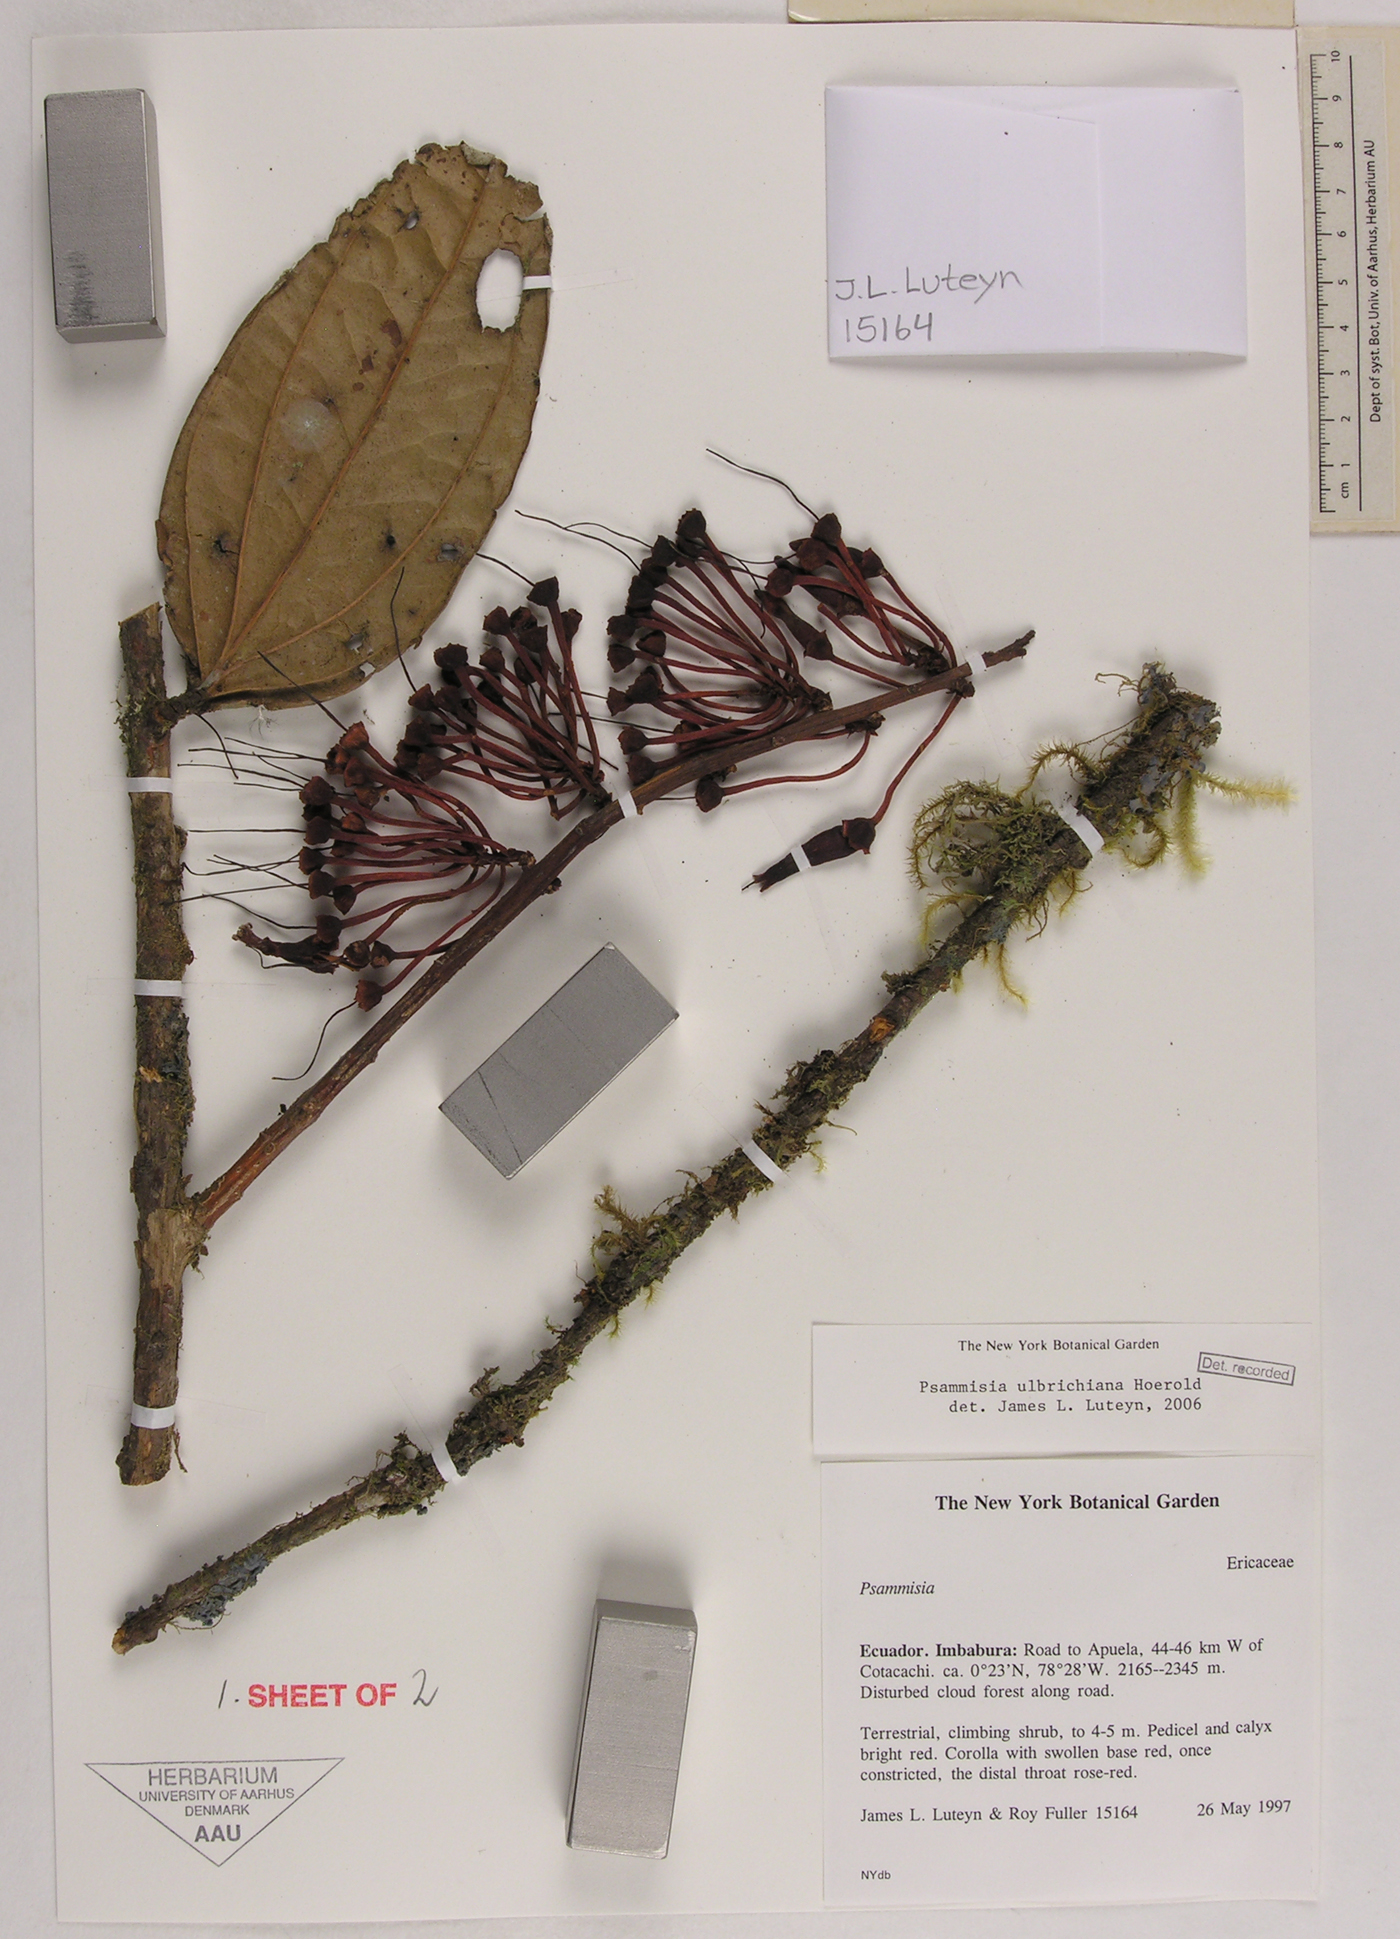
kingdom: Plantae
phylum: Tracheophyta
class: Magnoliopsida
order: Ericales
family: Ericaceae
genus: Psammisia
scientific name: Psammisia ulbrichiana
